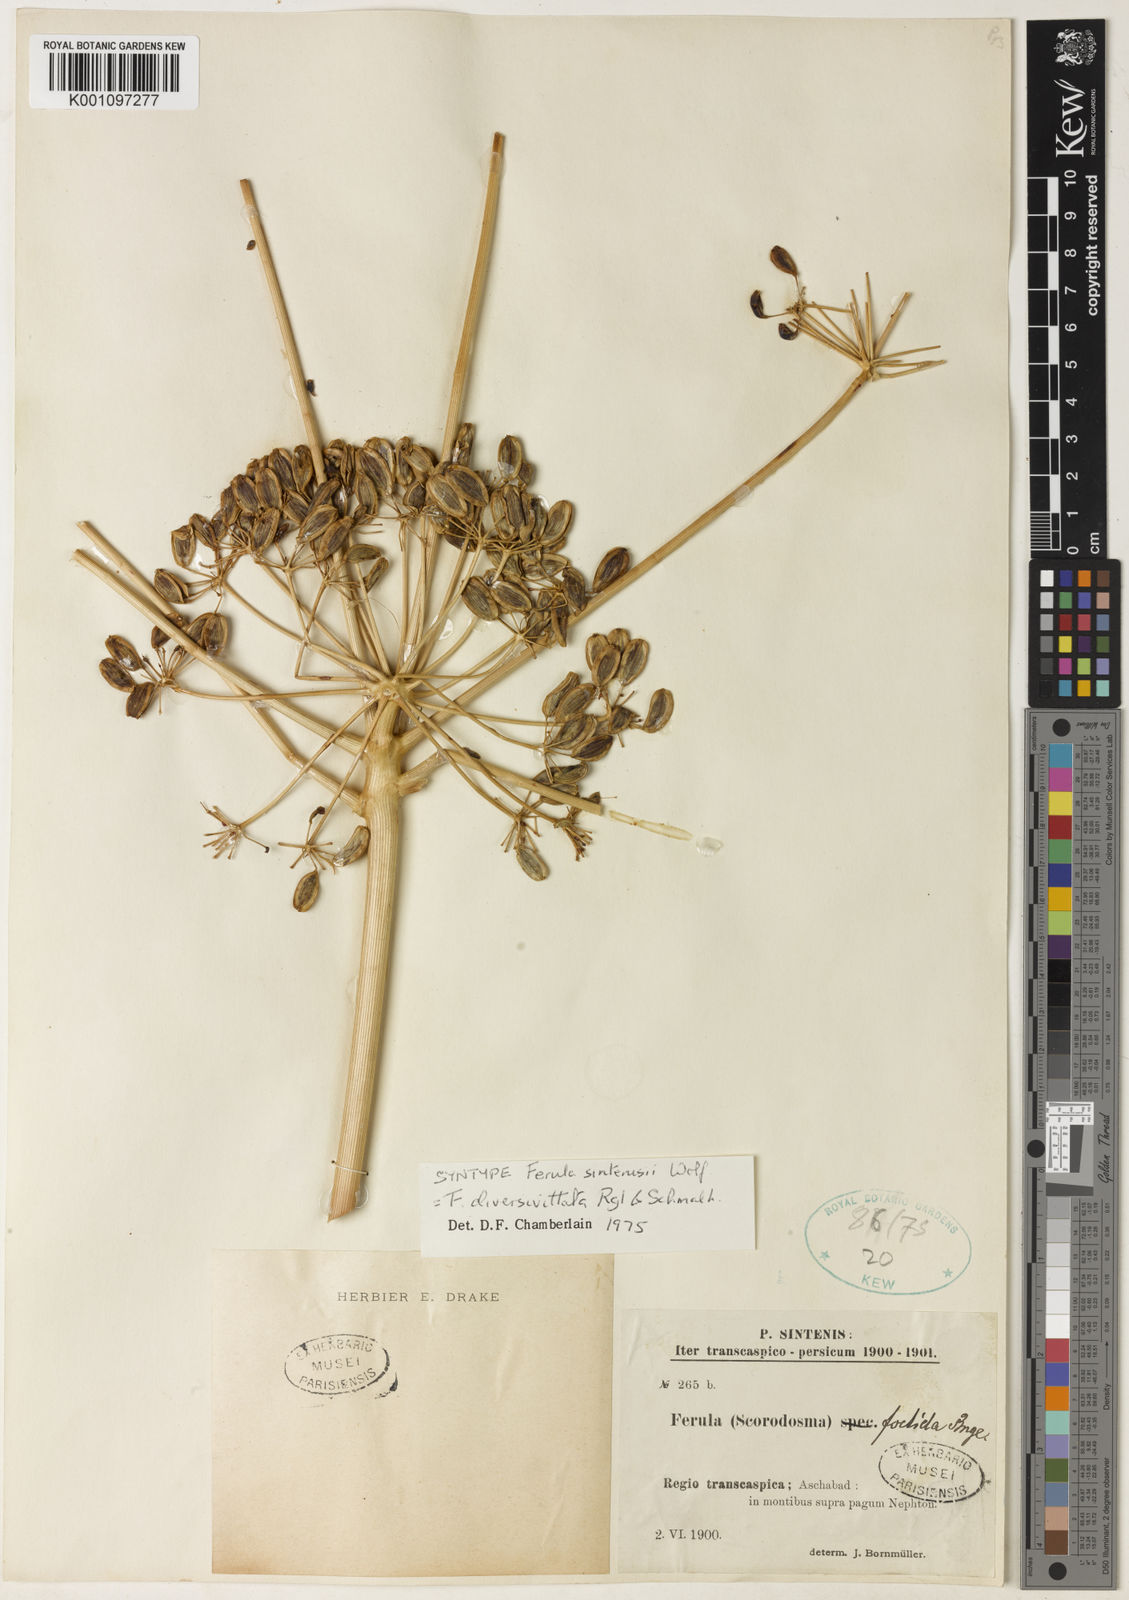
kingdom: Plantae
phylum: Tracheophyta
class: Magnoliopsida
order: Apiales
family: Apiaceae
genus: Ferula
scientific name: Ferula diversivittata
